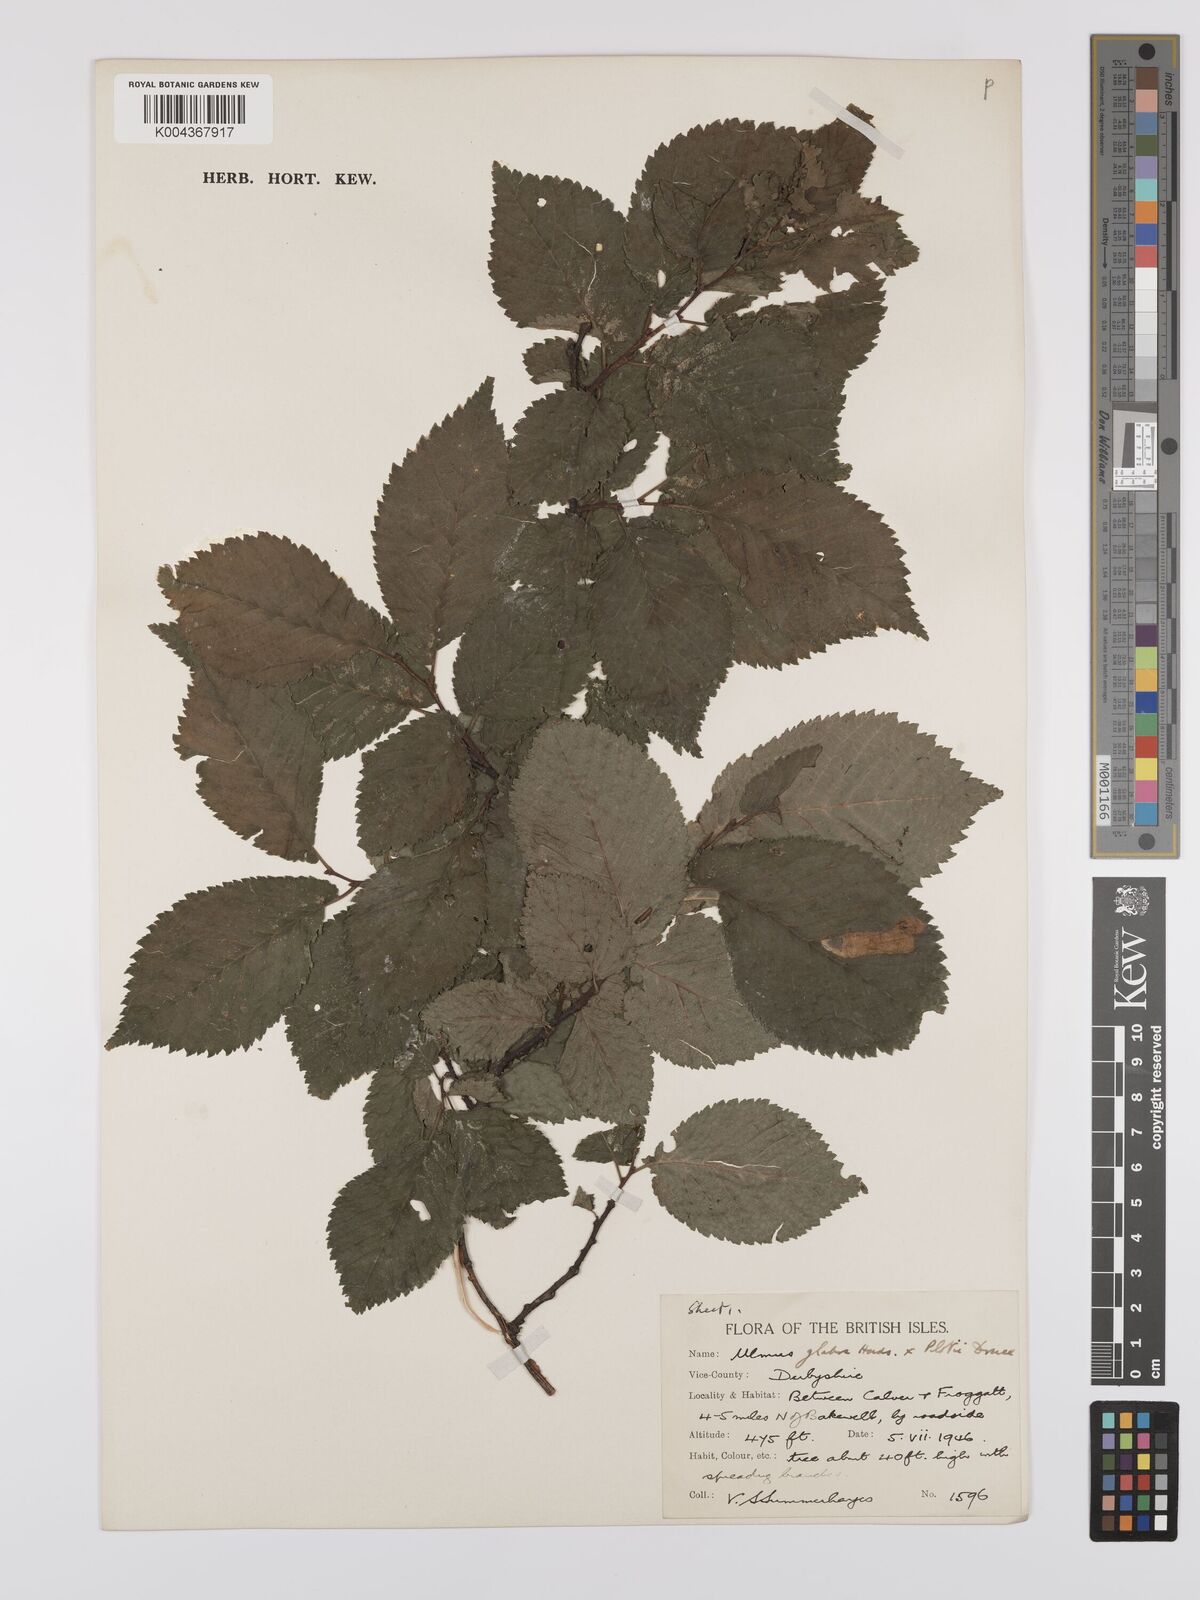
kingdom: Plantae
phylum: Tracheophyta
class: Magnoliopsida
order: Rosales
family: Ulmaceae
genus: Ulmus
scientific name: Ulmus
